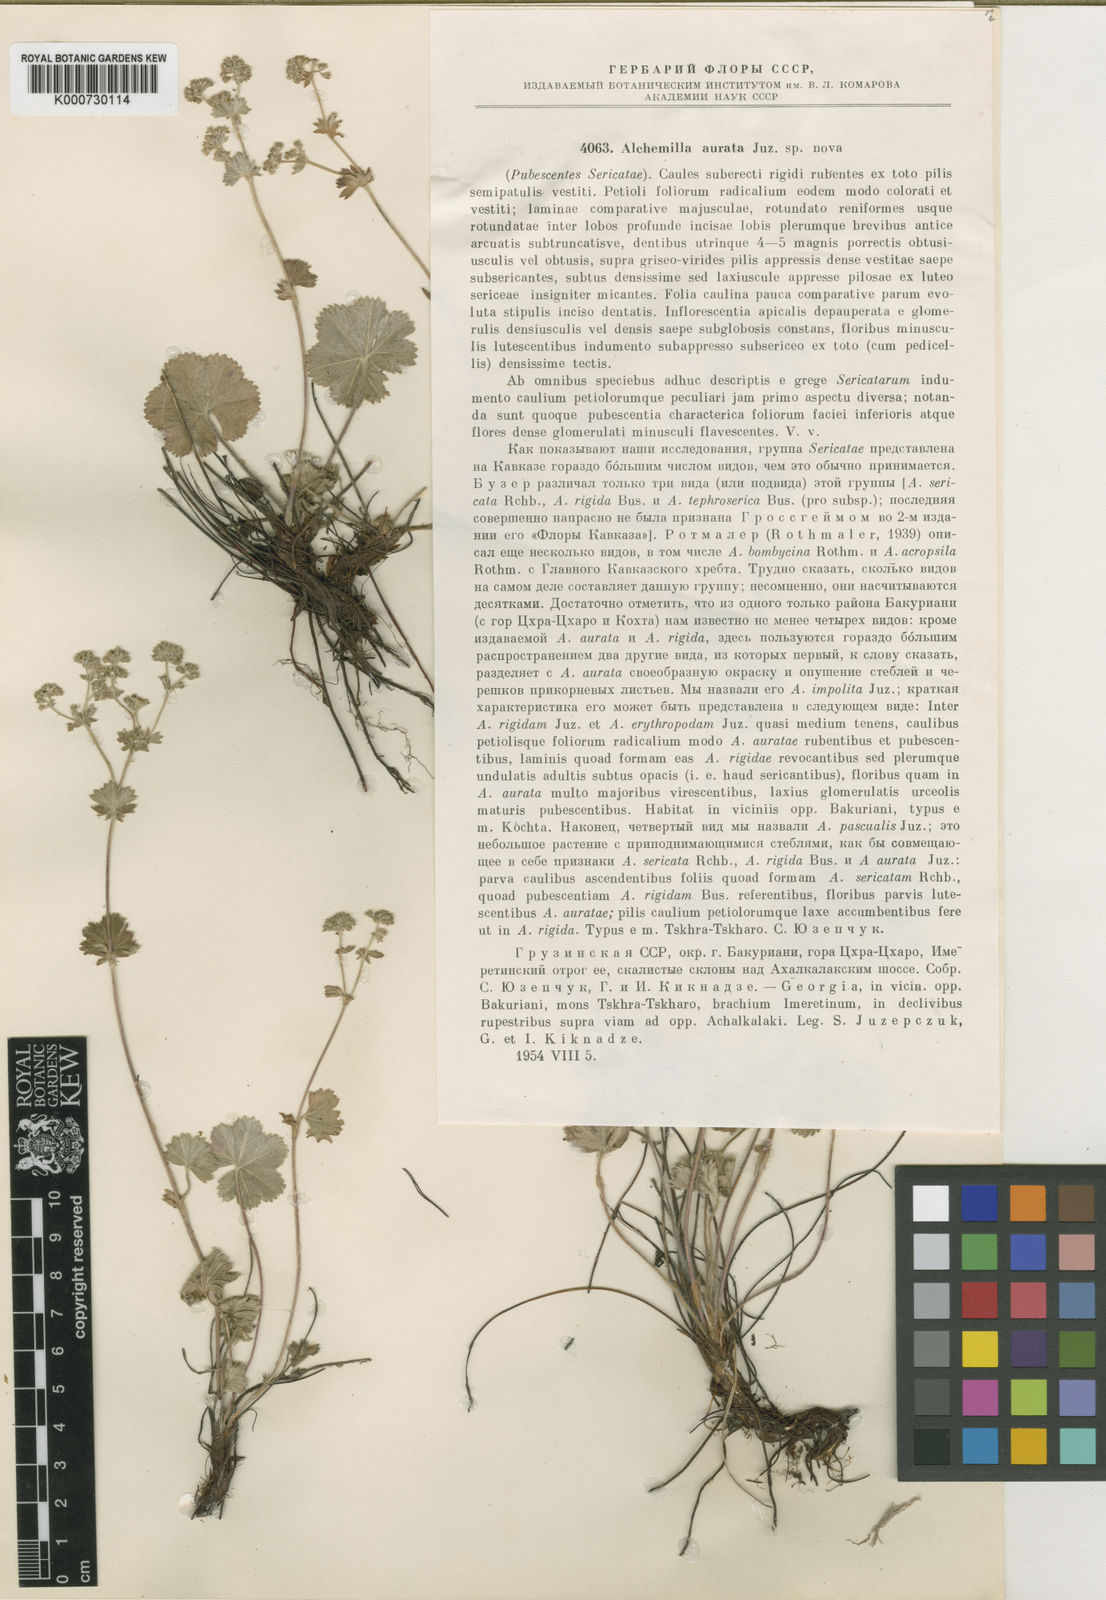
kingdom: Plantae
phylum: Tracheophyta
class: Magnoliopsida
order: Rosales
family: Rosaceae
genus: Alchemilla
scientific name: Alchemilla aurata
